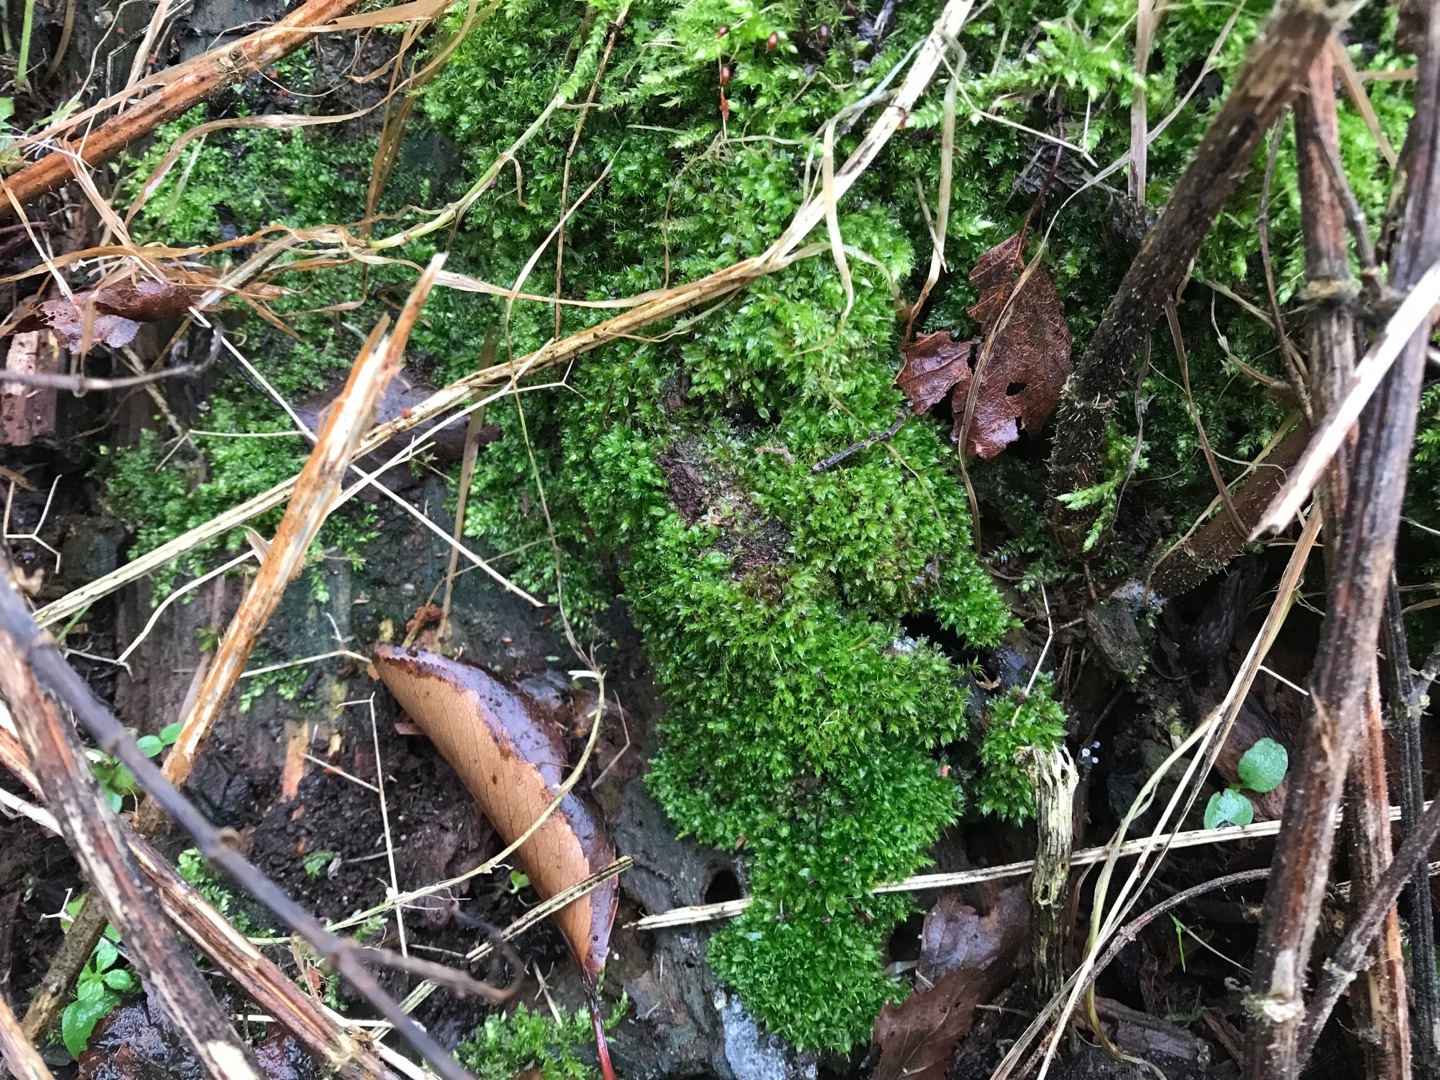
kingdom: Plantae
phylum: Bryophyta
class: Bryopsida
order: Aulacomniales
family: Aulacomniaceae
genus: Aulacomnium
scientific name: Aulacomnium androgynum
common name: Kugle-filtmos
